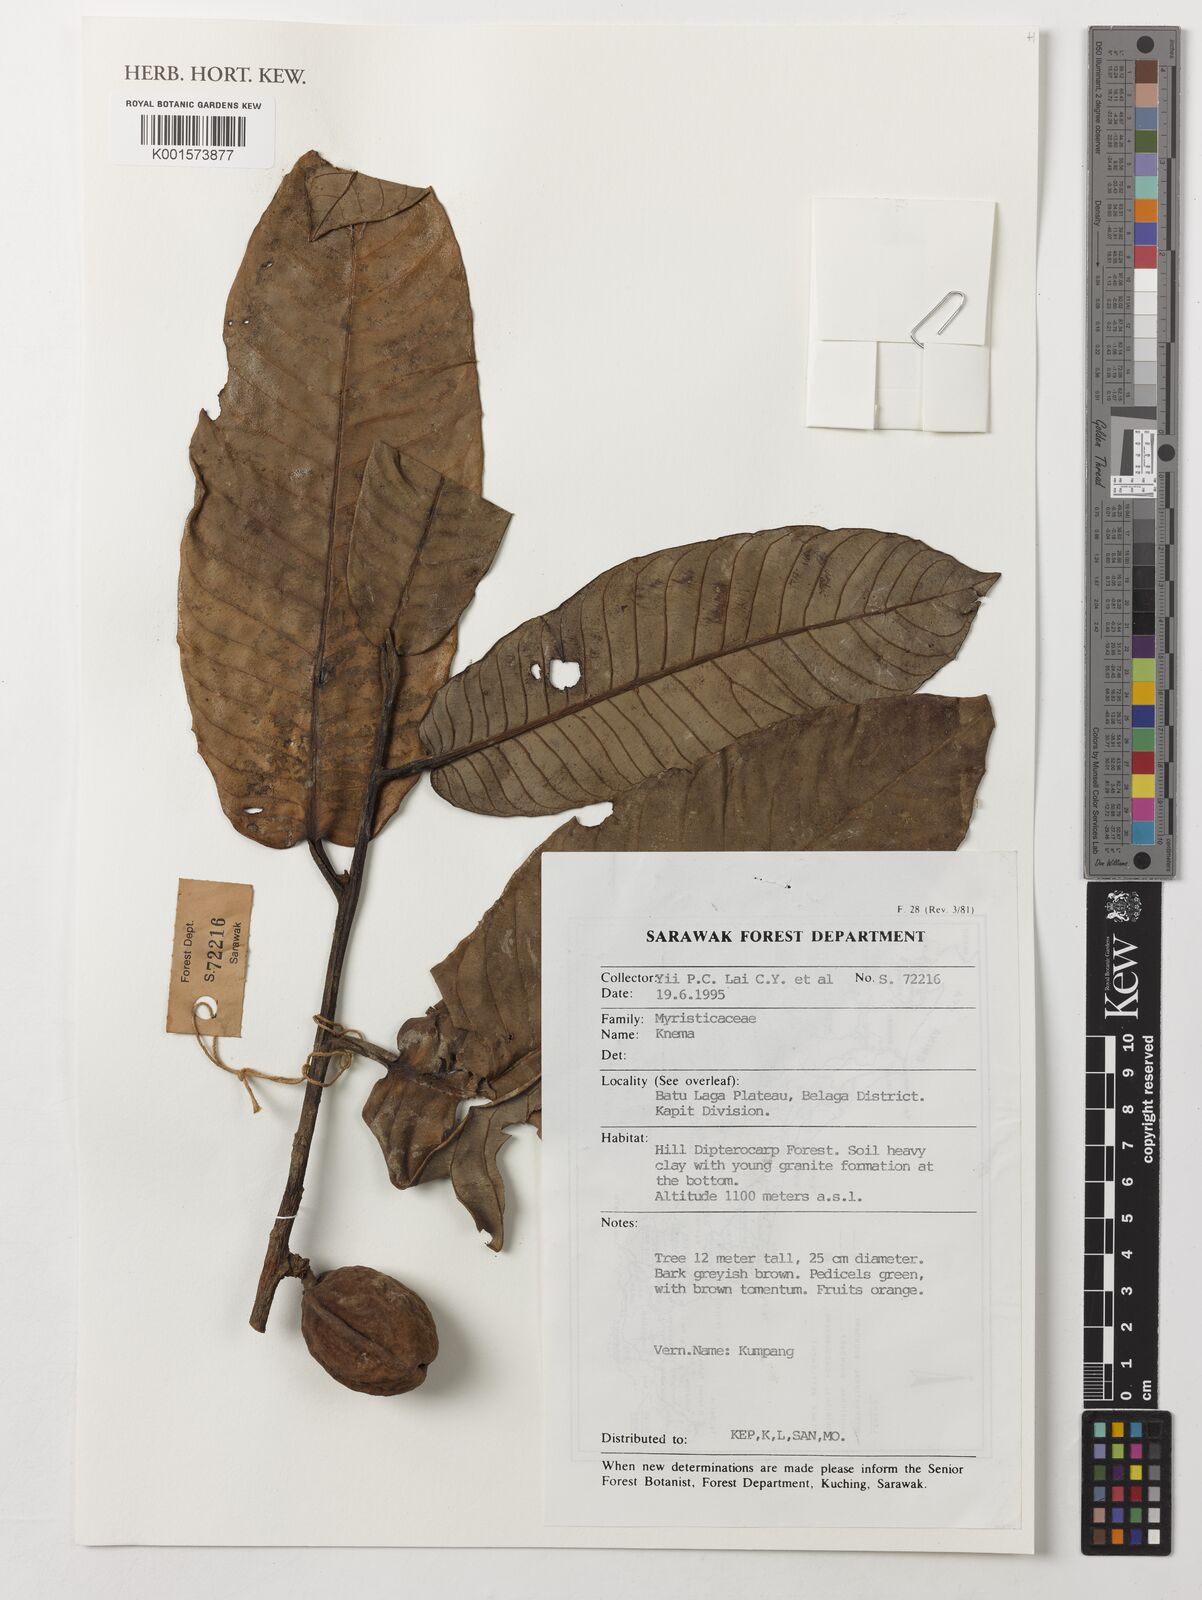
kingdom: Plantae
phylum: Tracheophyta
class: Magnoliopsida
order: Magnoliales
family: Myristicaceae
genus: Knema
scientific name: Knema
